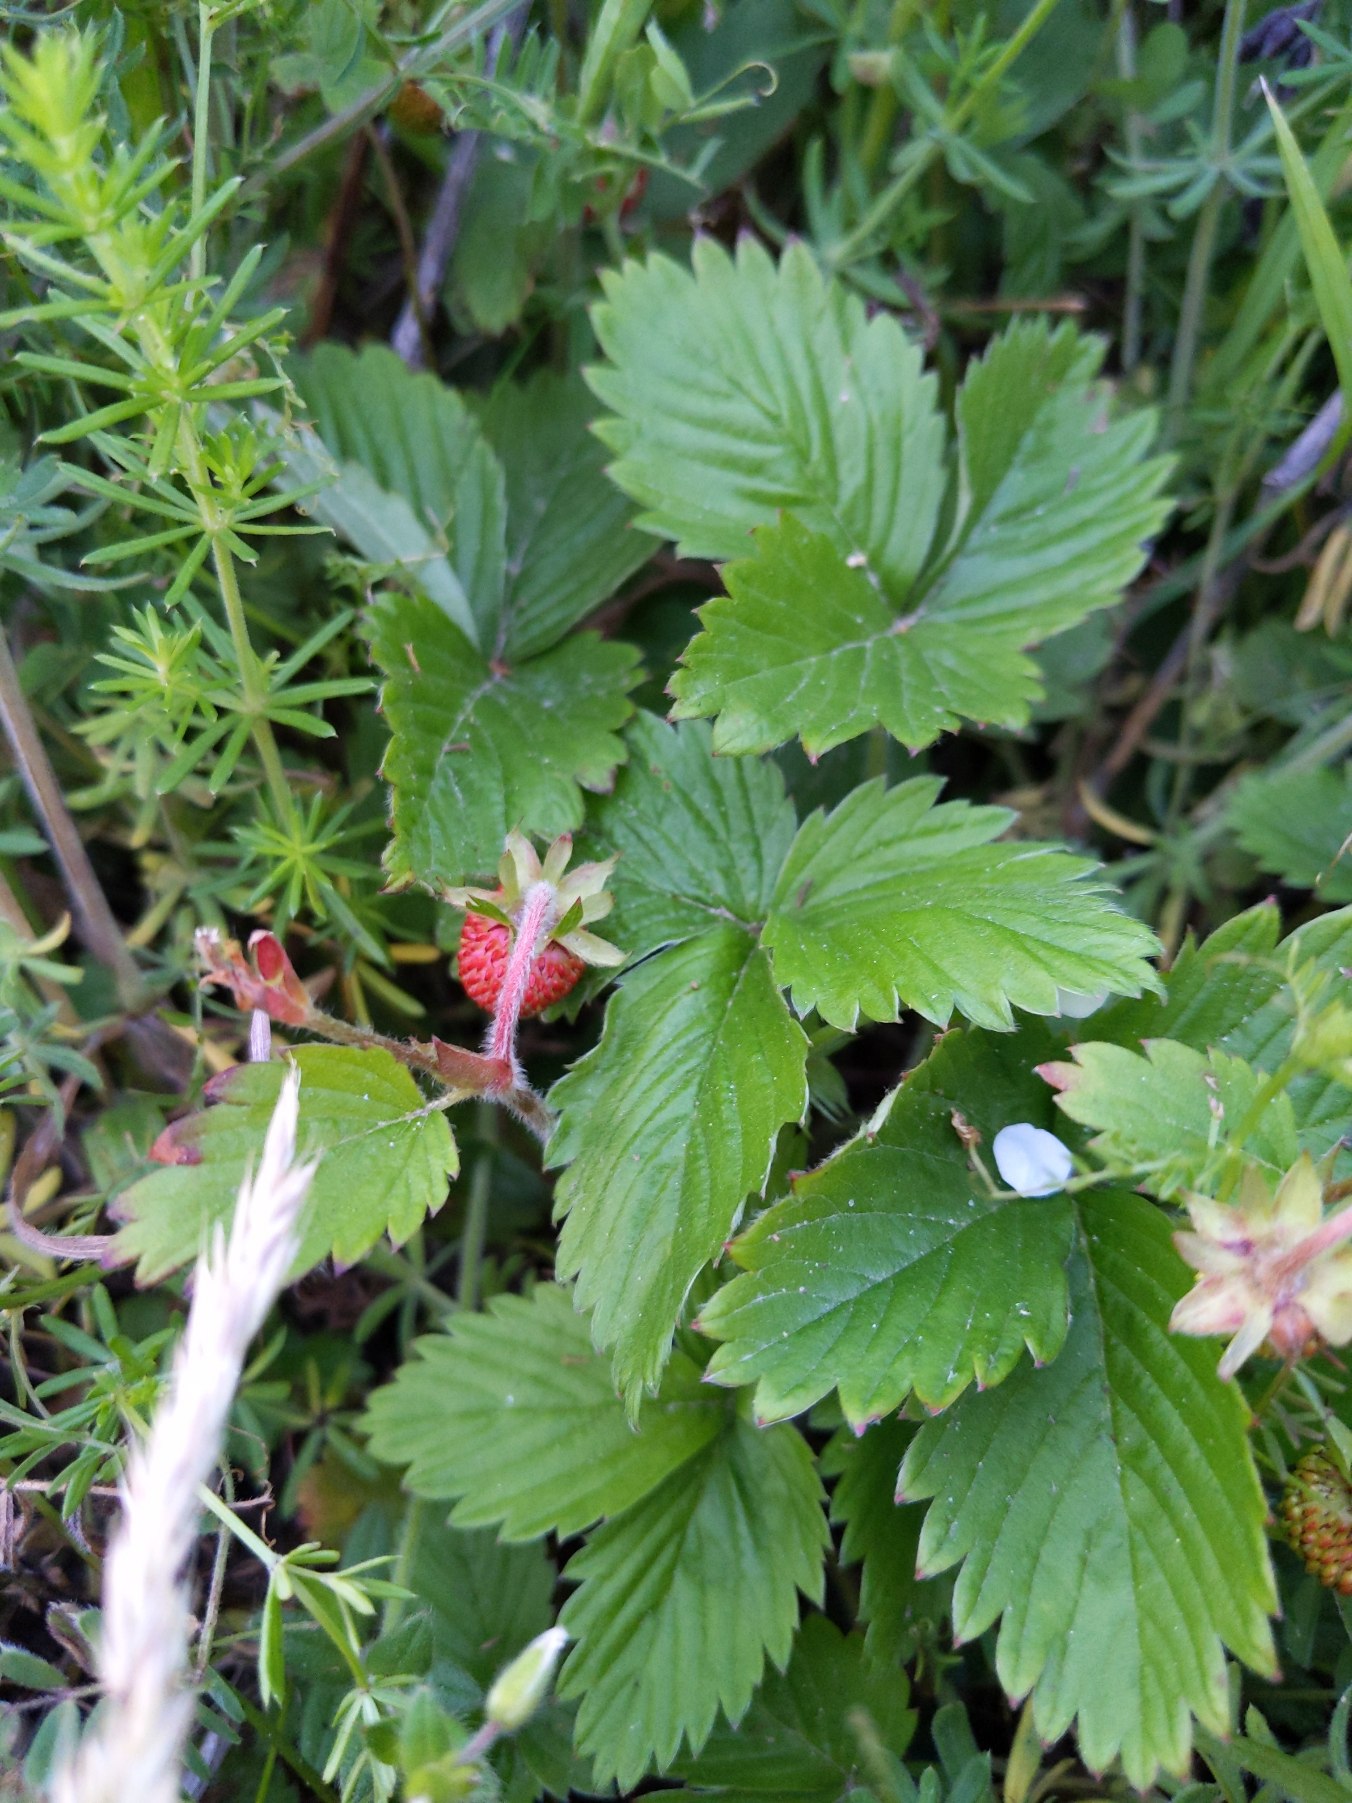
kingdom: Plantae
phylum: Tracheophyta
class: Magnoliopsida
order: Rosales
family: Rosaceae
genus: Fragaria
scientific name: Fragaria vesca
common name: Skov-jordbær
